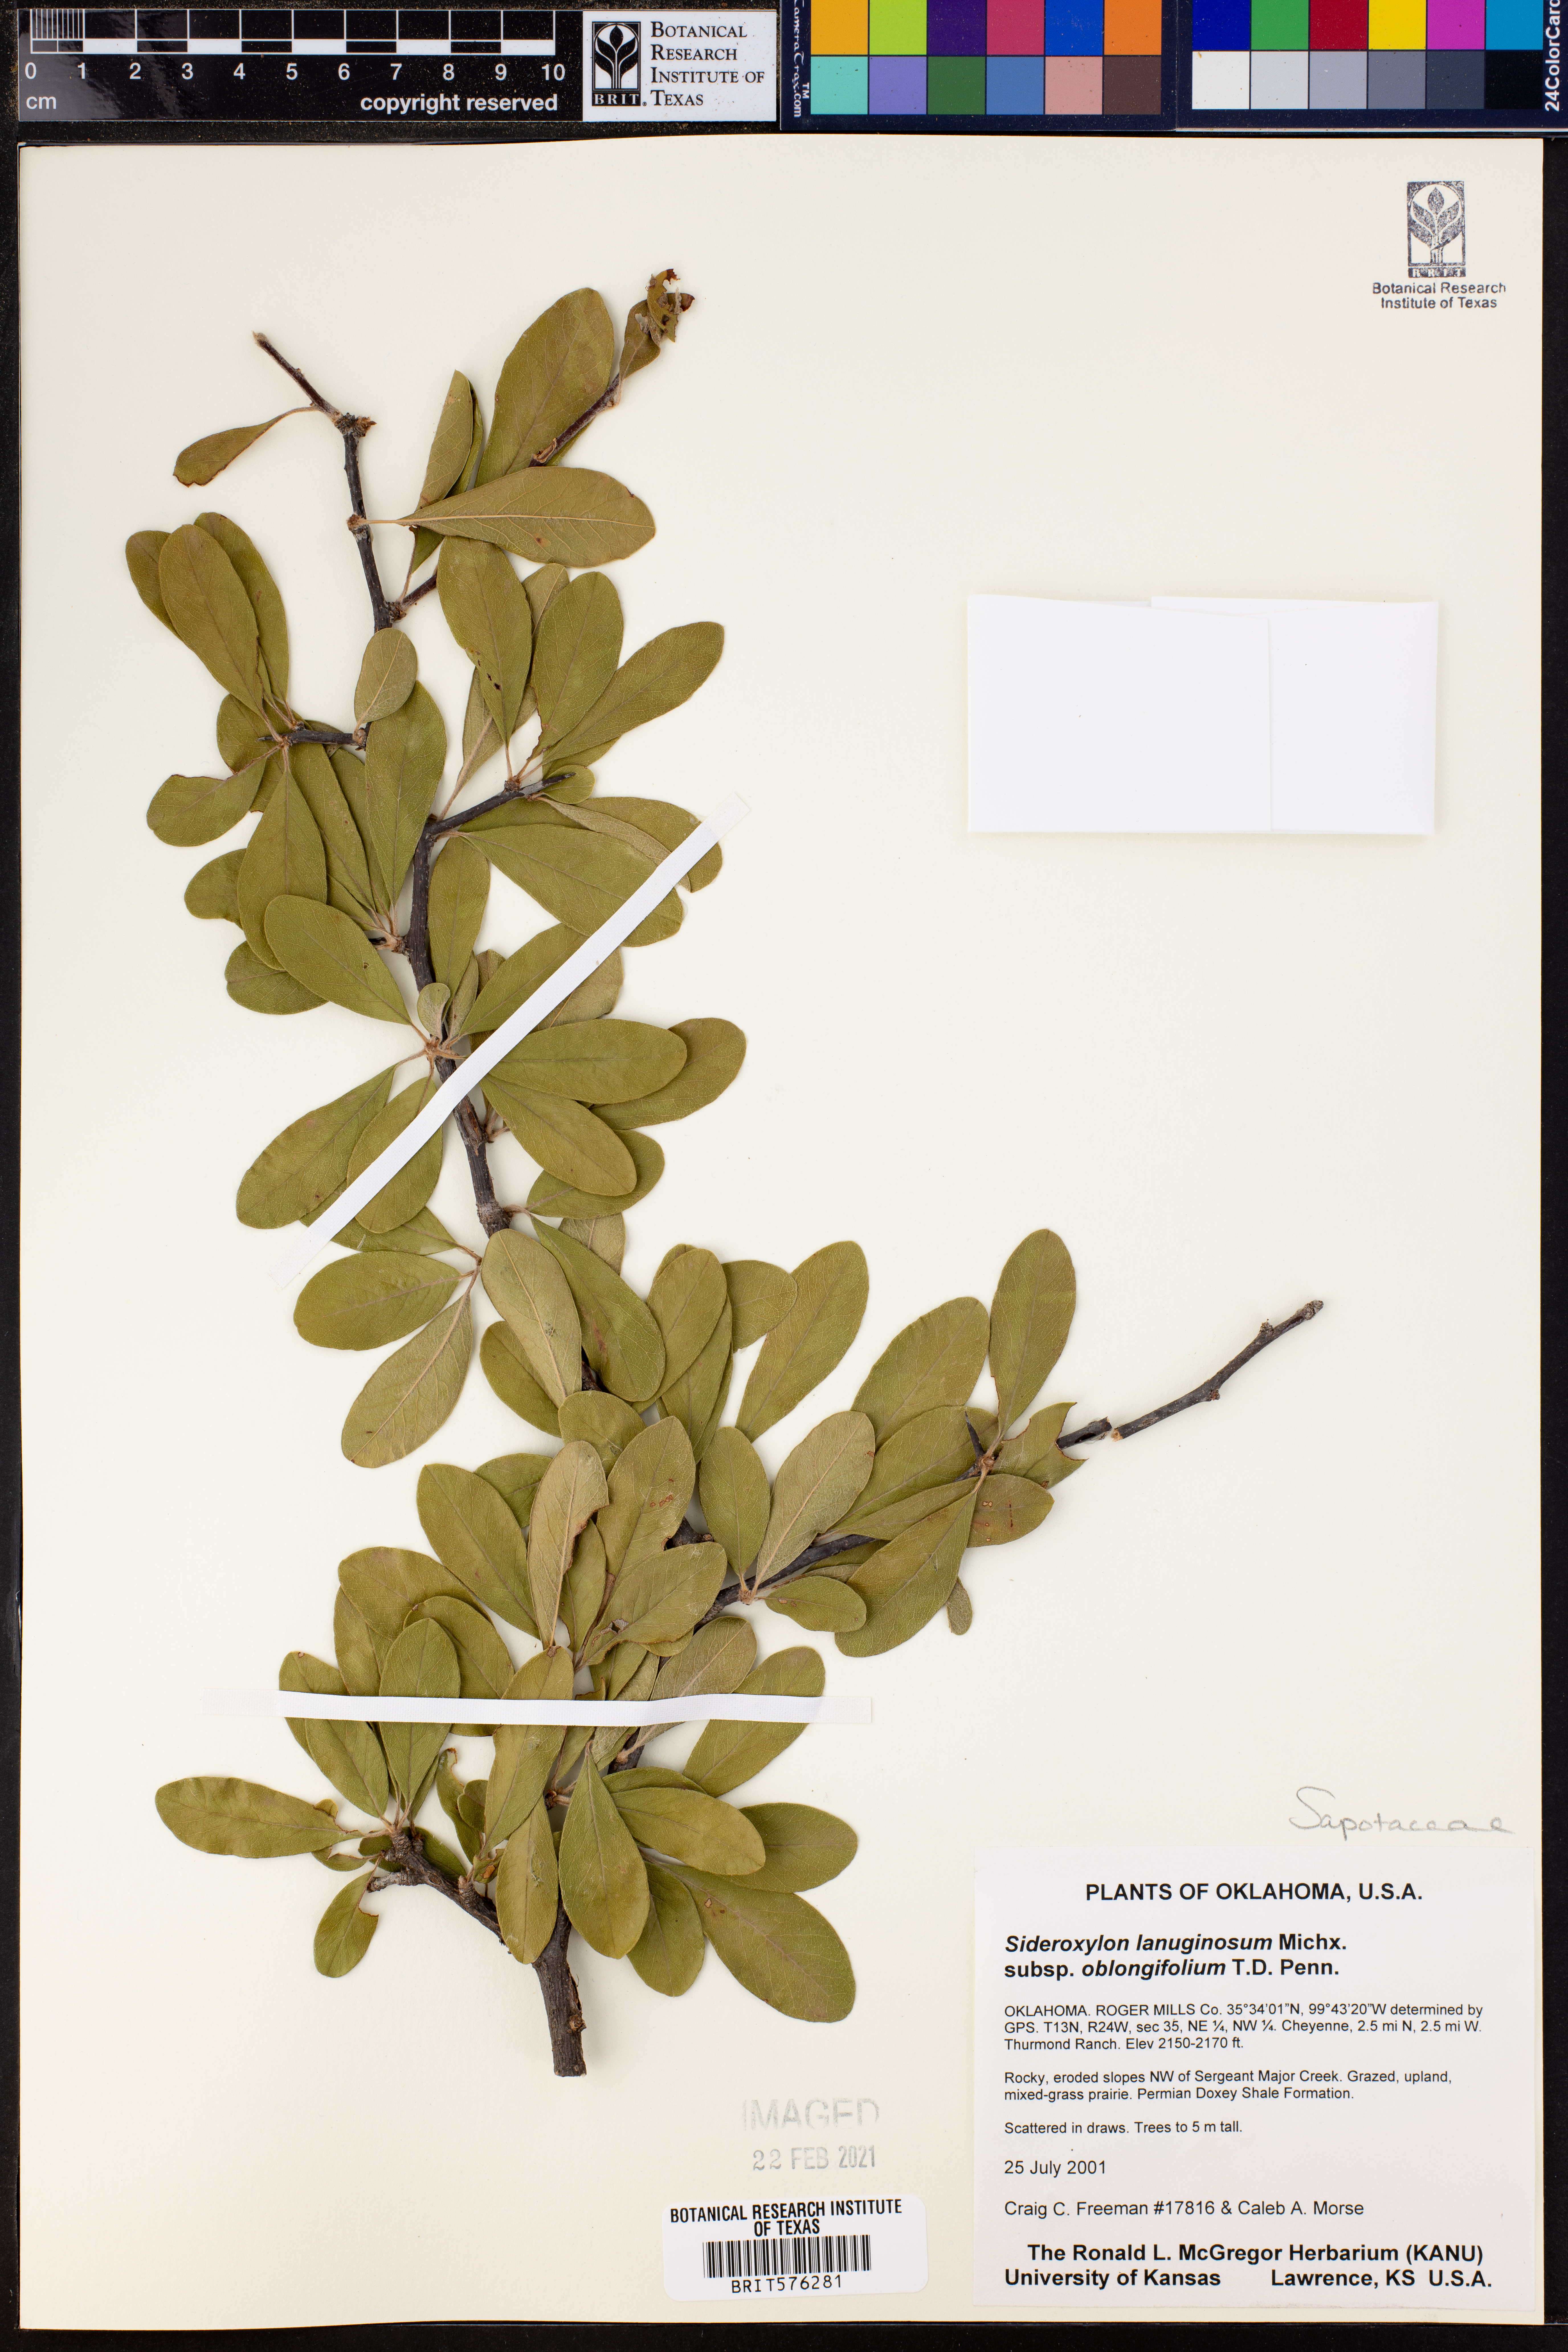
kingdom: Plantae
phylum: Tracheophyta
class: Magnoliopsida
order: Ericales
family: Sapotaceae
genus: Sideroxylon
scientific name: Sideroxylon lanuginosum
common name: Chittamwood
